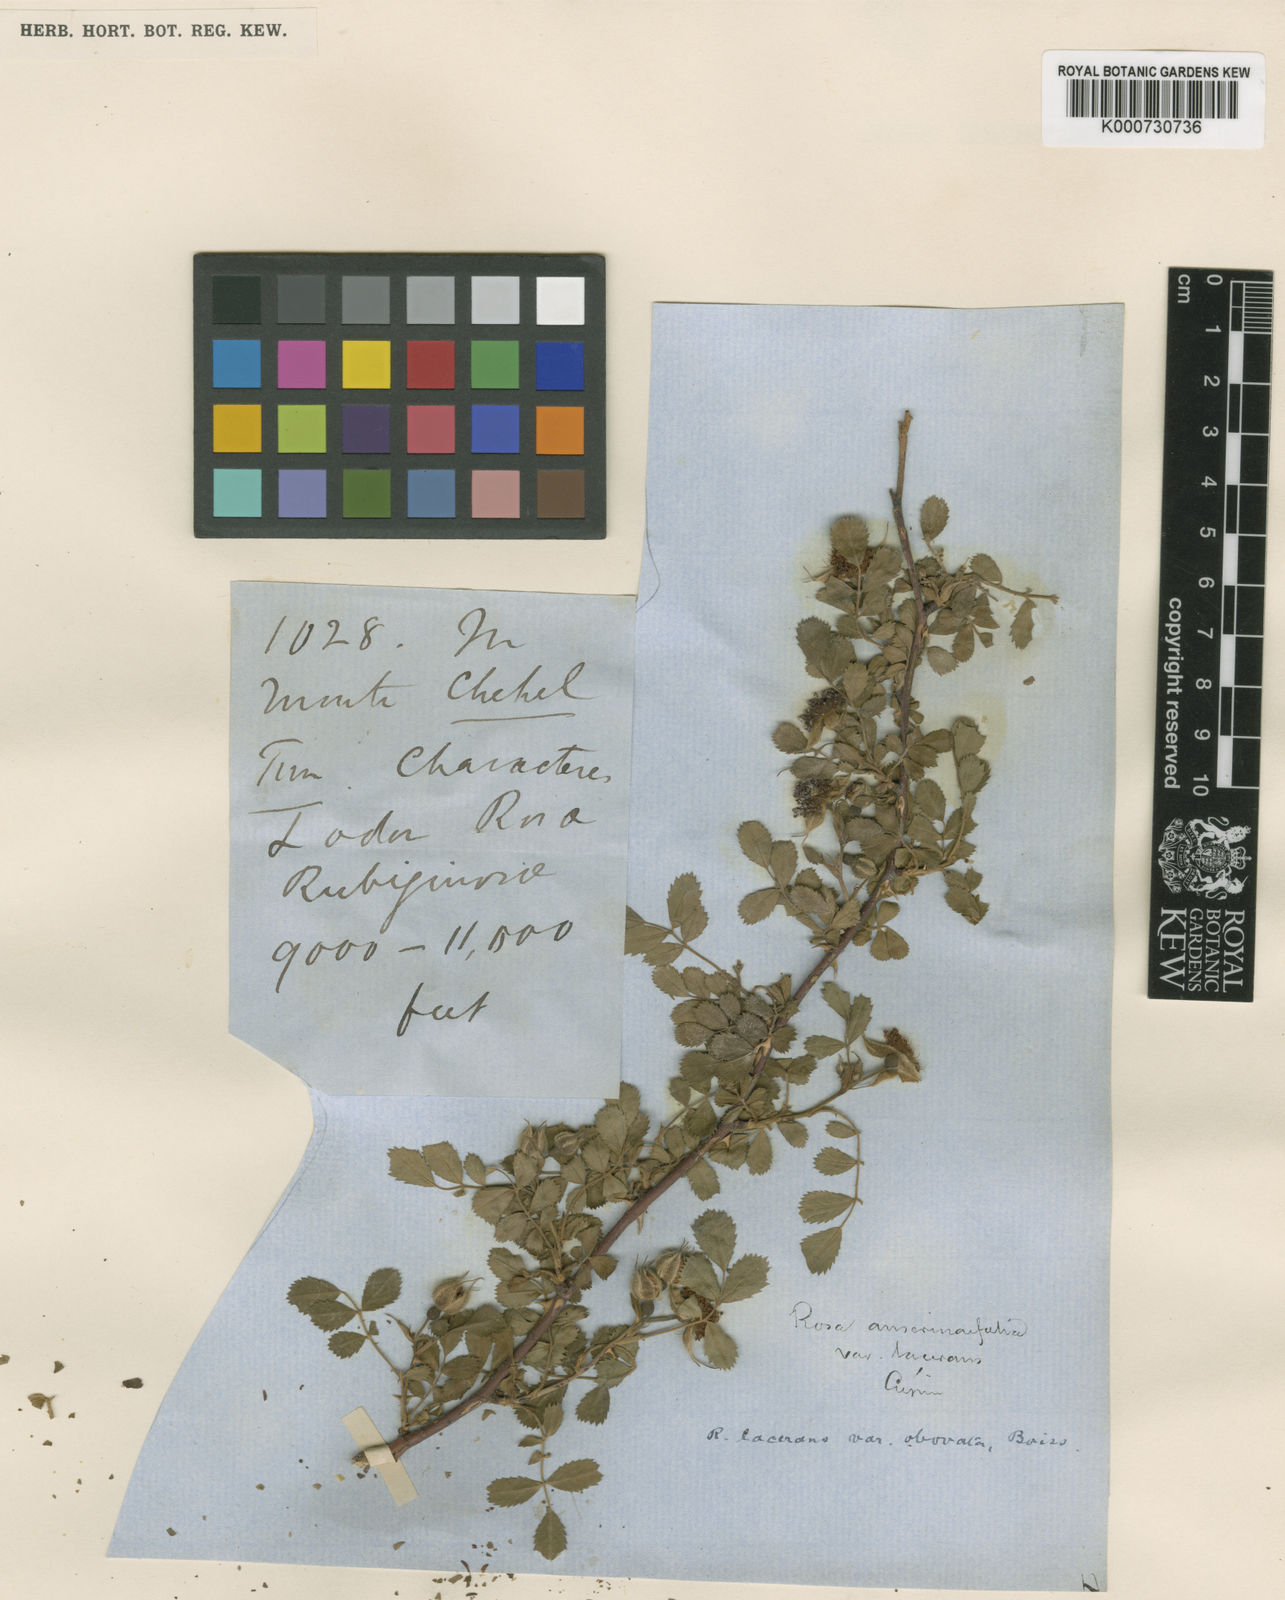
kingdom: Plantae
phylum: Tracheophyta
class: Magnoliopsida
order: Rosales
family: Rosaceae
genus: Rosa
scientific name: Rosa beggeriana
